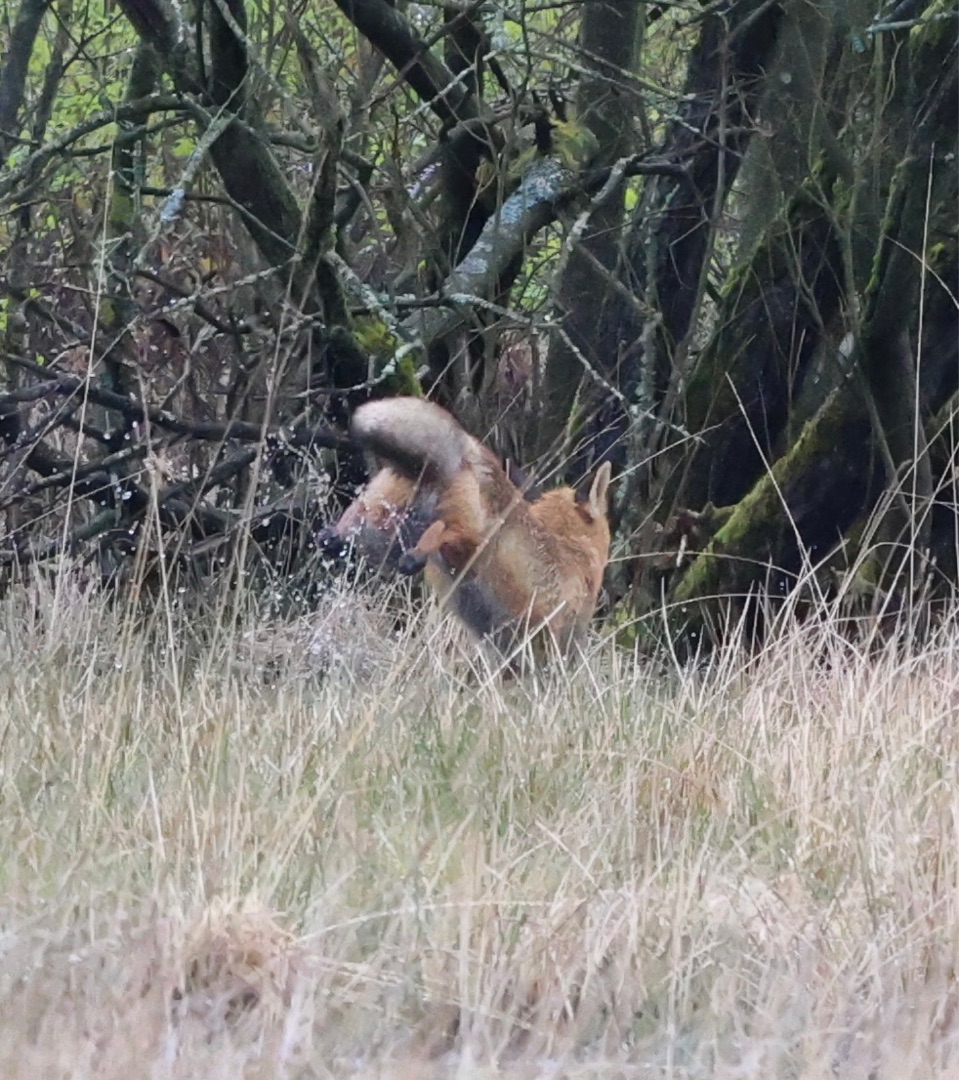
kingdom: Animalia
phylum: Chordata
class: Mammalia
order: Carnivora
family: Canidae
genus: Vulpes
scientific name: Vulpes vulpes
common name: Ræv
